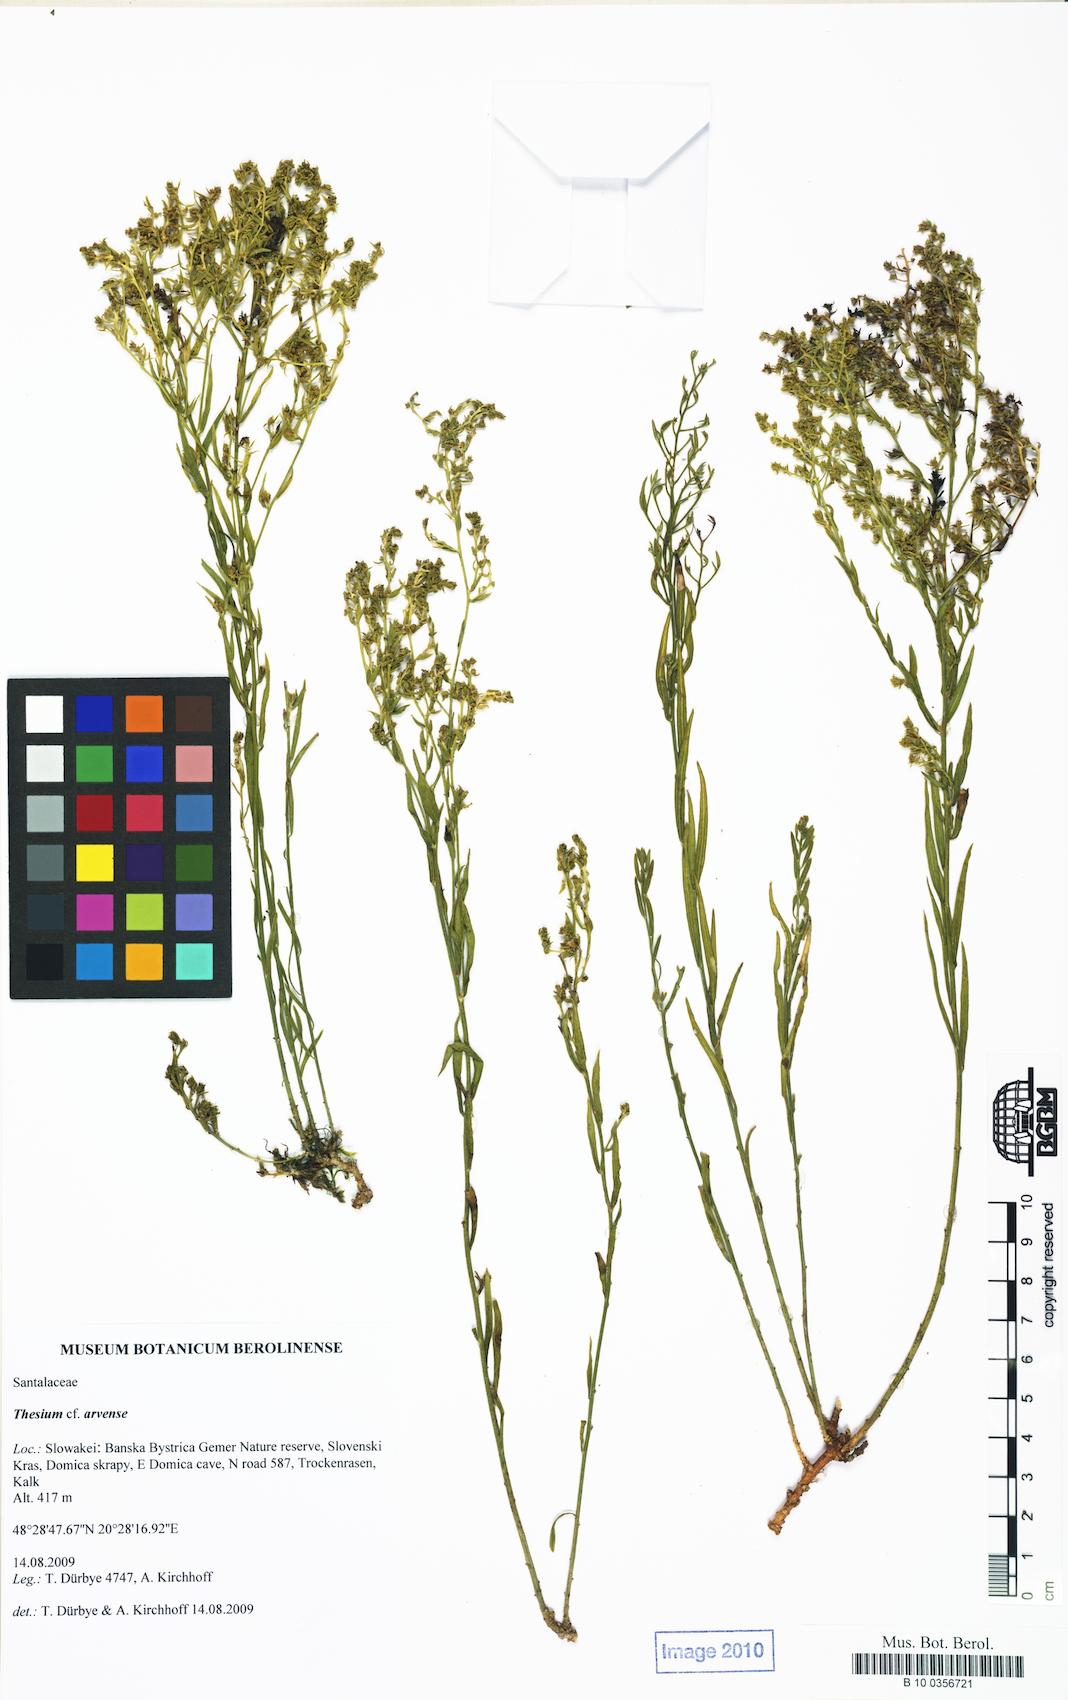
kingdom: Plantae
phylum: Tracheophyta
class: Magnoliopsida
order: Santalales
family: Thesiaceae
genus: Thesium
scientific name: Thesium
